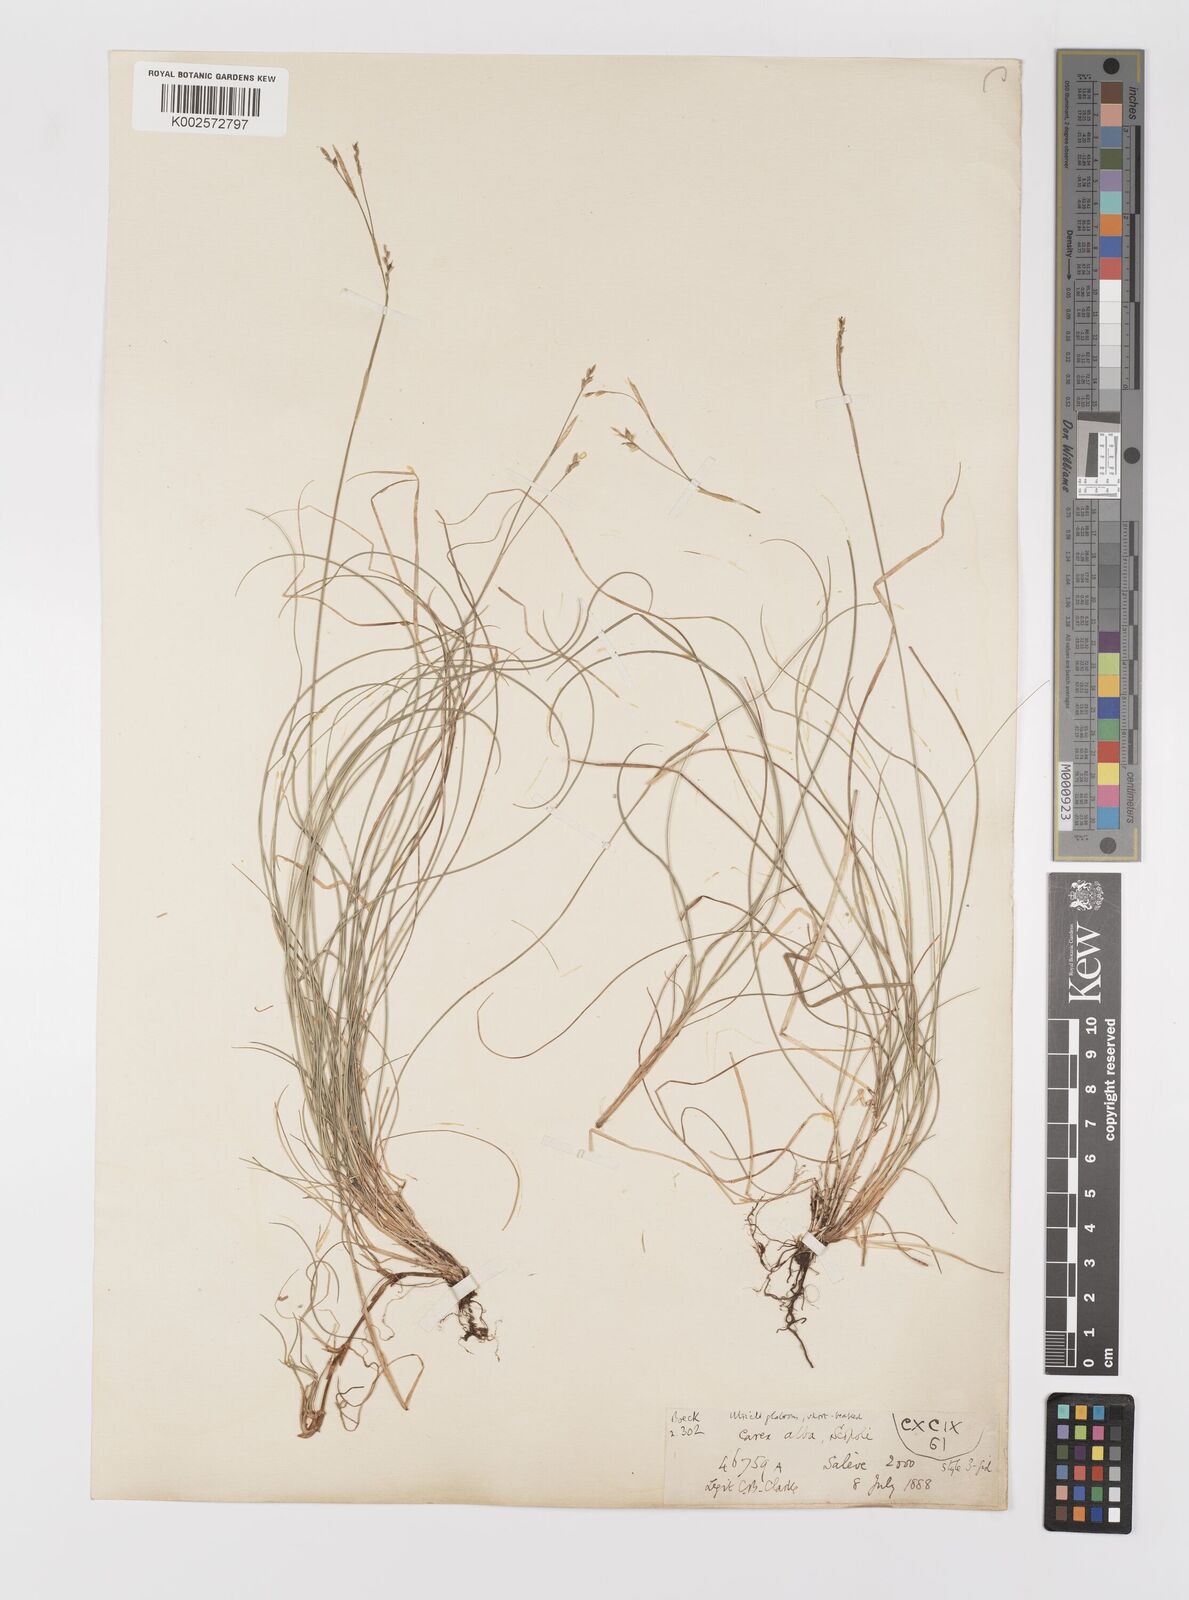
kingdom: Plantae
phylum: Tracheophyta
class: Liliopsida
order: Poales
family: Cyperaceae
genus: Carex
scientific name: Carex alba
